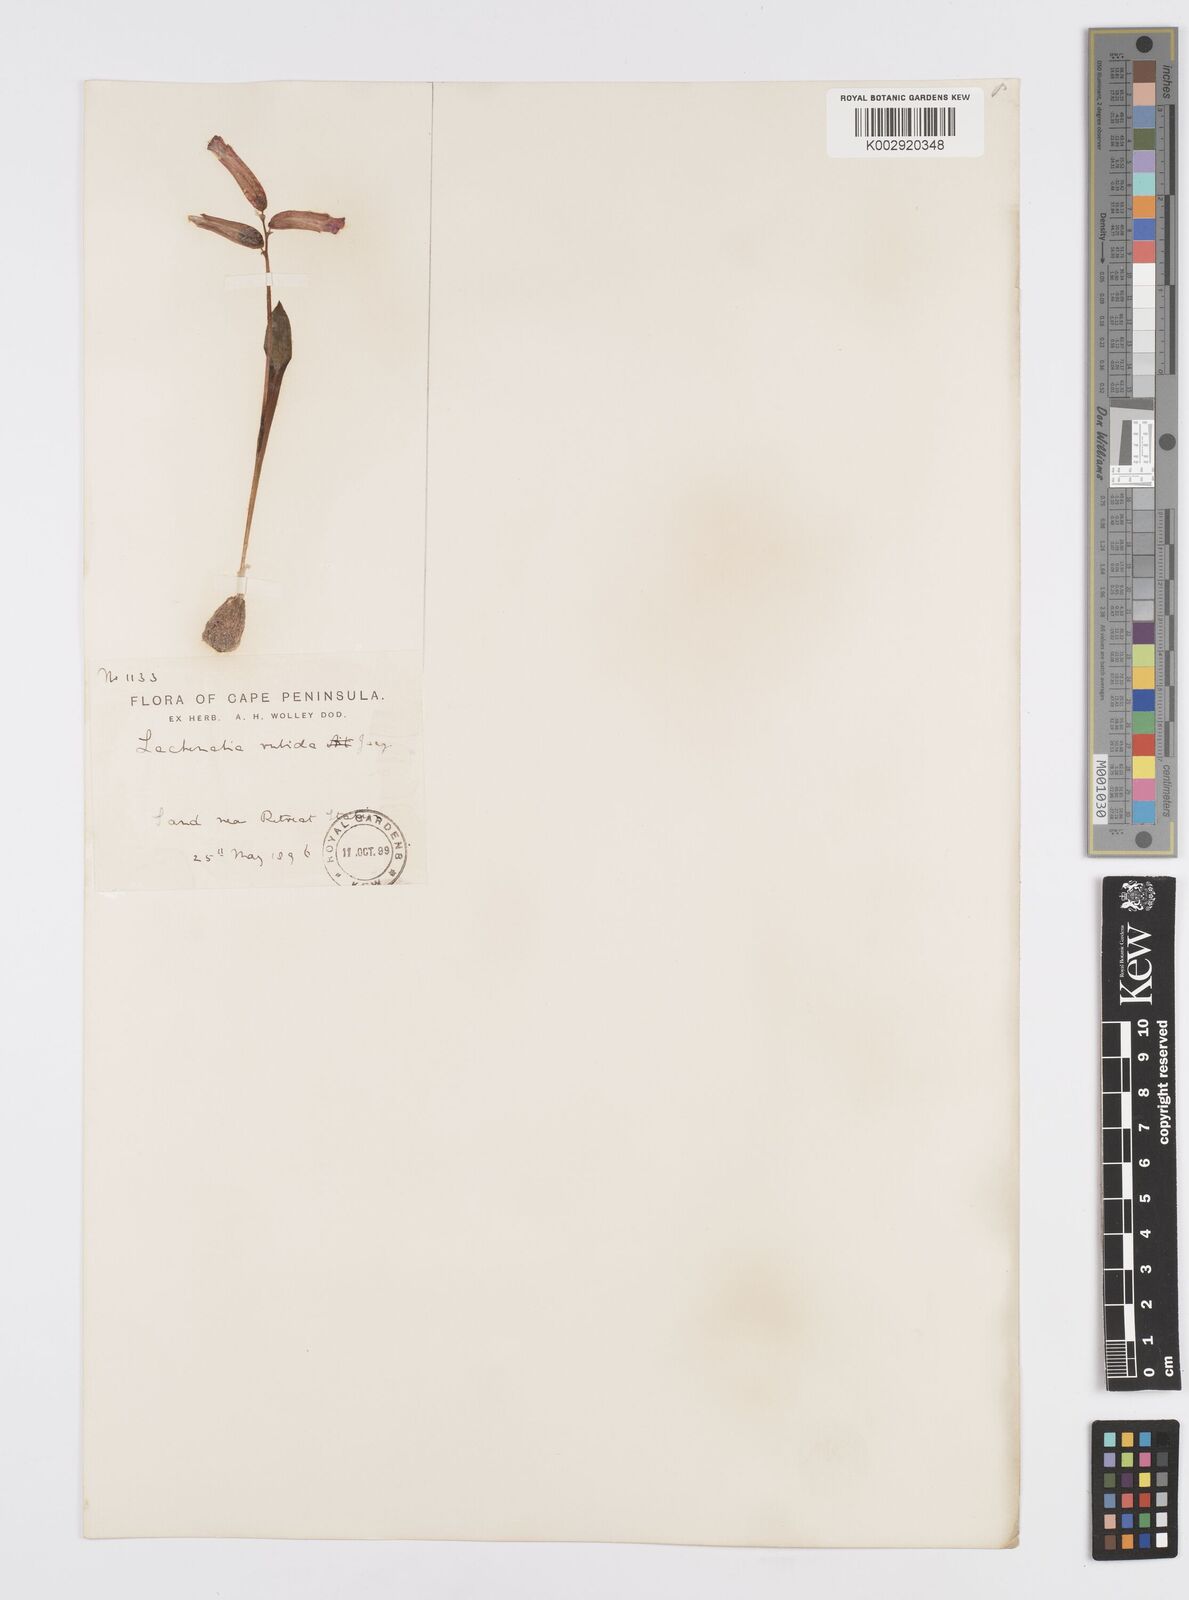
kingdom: Plantae
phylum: Tracheophyta
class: Liliopsida
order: Asparagales
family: Asparagaceae
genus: Lachenalia
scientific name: Lachenalia punctata
